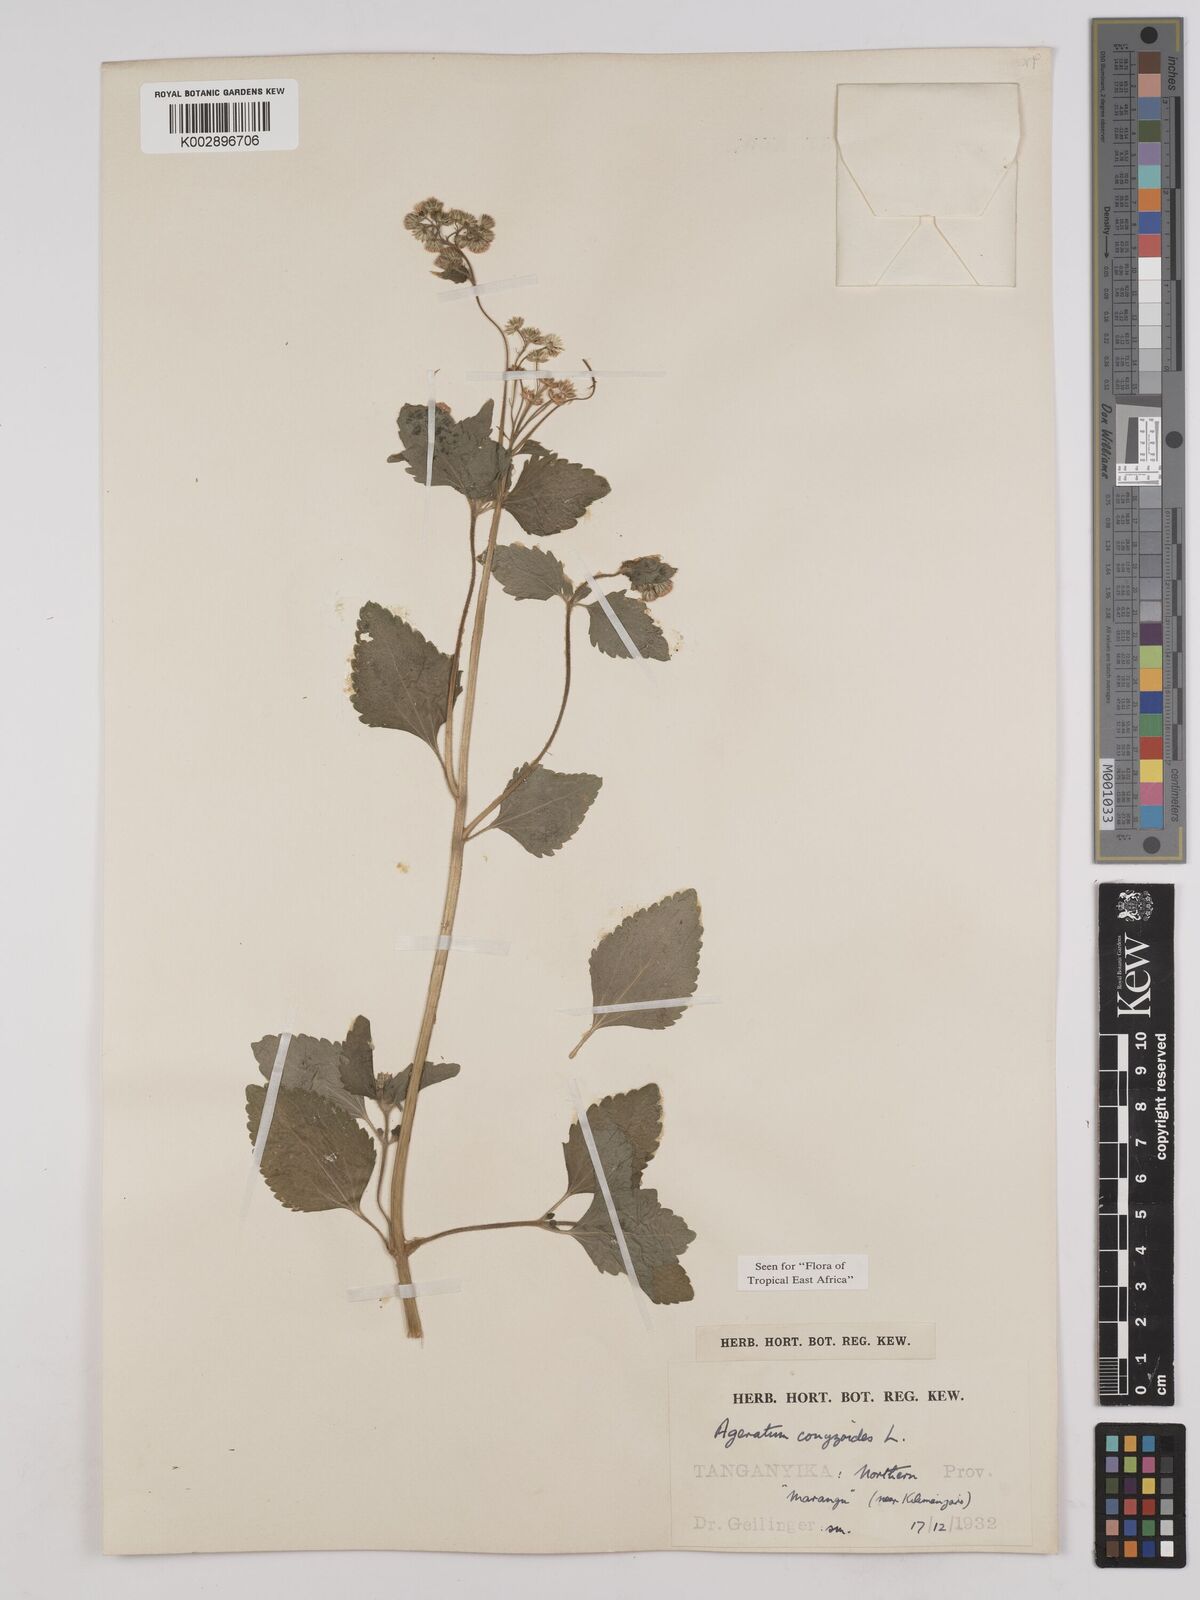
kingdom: Plantae
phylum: Tracheophyta
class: Magnoliopsida
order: Asterales
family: Asteraceae
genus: Ageratum
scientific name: Ageratum conyzoides
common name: Tropical whiteweed
